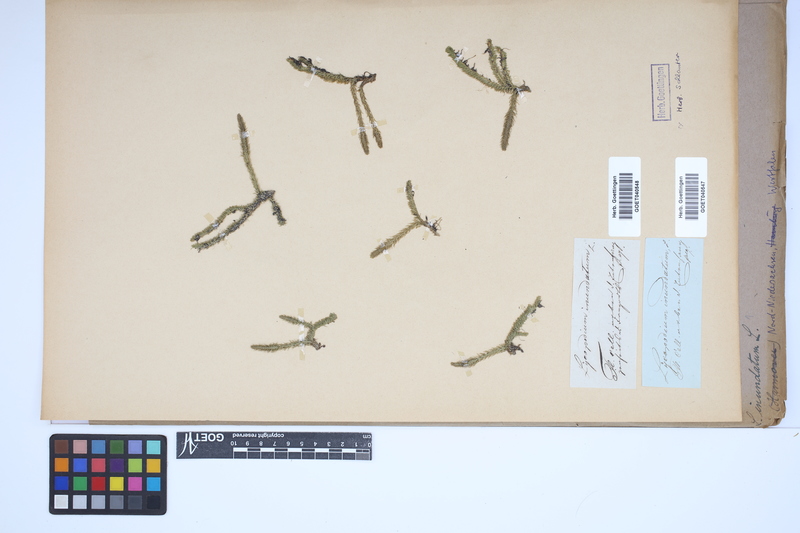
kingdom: Plantae
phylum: Tracheophyta
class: Lycopodiopsida
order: Lycopodiales
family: Lycopodiaceae
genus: Lycopodiella
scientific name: Lycopodiella inundata
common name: Marsh clubmoss
